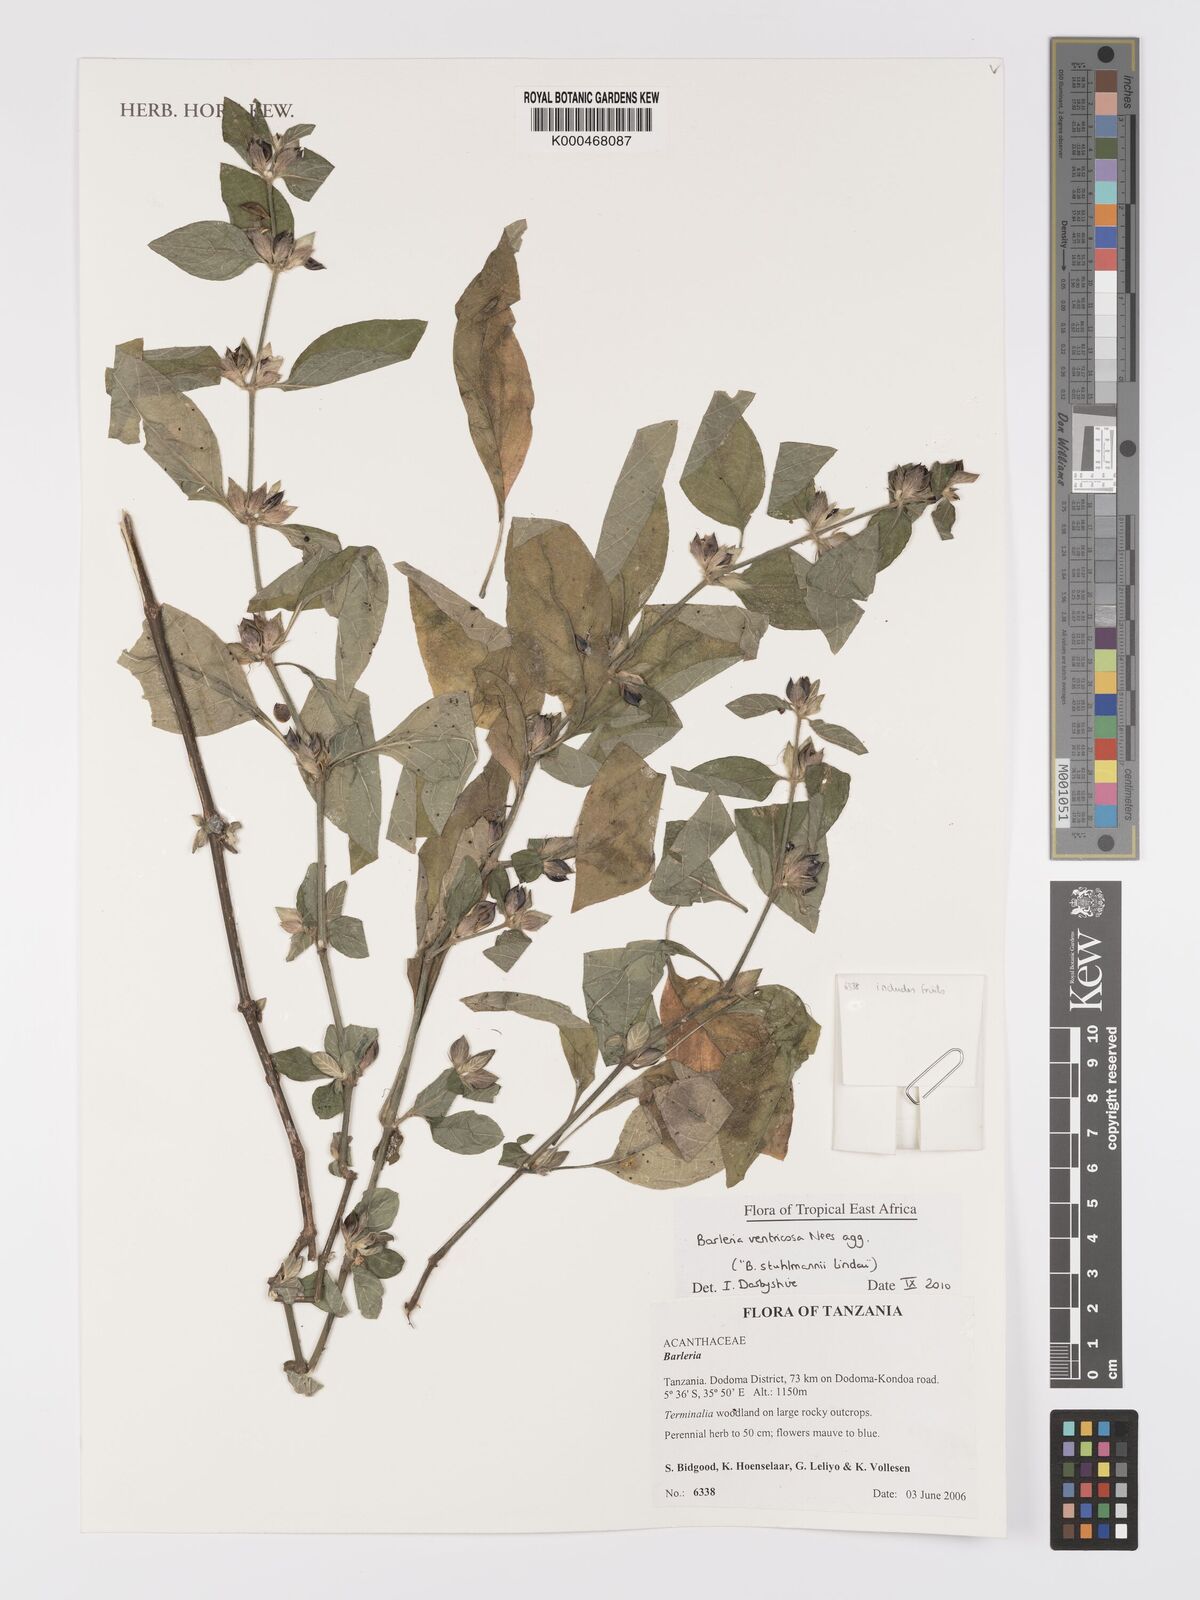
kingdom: Plantae
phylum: Tracheophyta
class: Magnoliopsida
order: Lamiales
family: Acanthaceae
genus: Barleria
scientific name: Barleria
